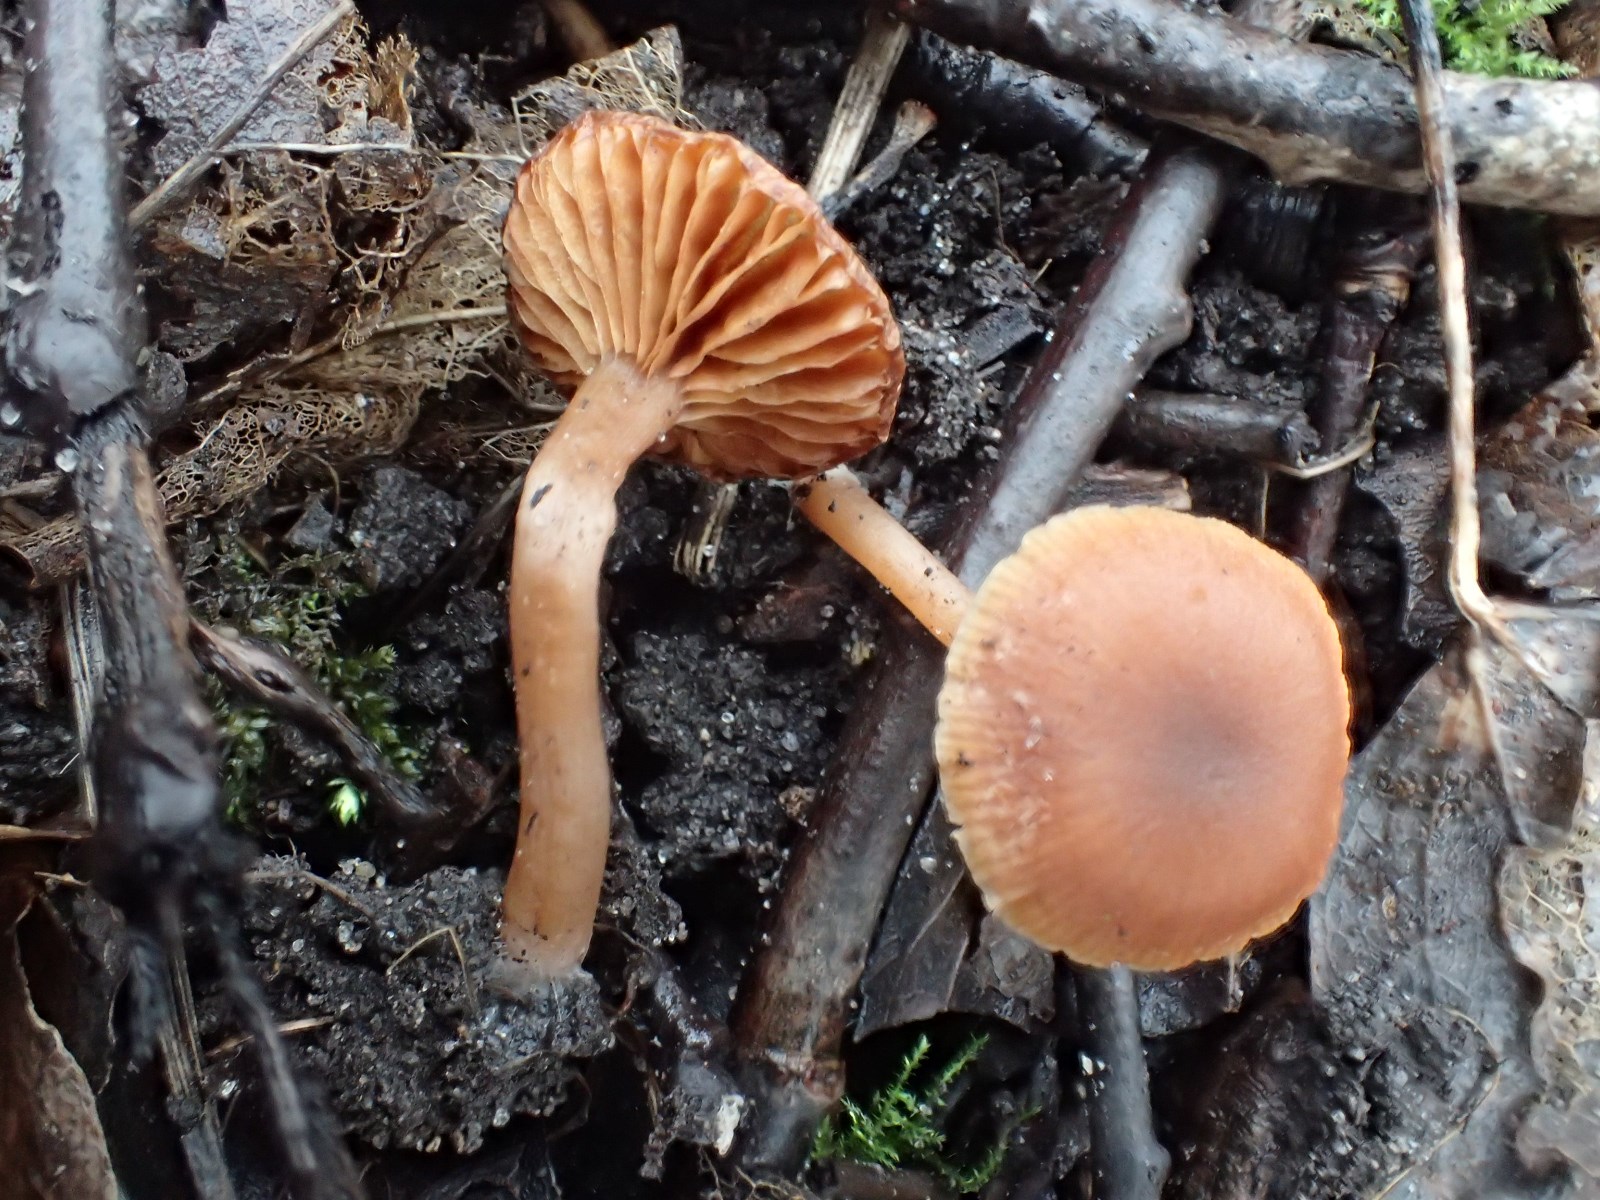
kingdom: Fungi
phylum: Basidiomycota
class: Agaricomycetes
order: Agaricales
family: Tubariaceae
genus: Tubaria
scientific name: Tubaria furfuracea
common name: kliddet fnughat
